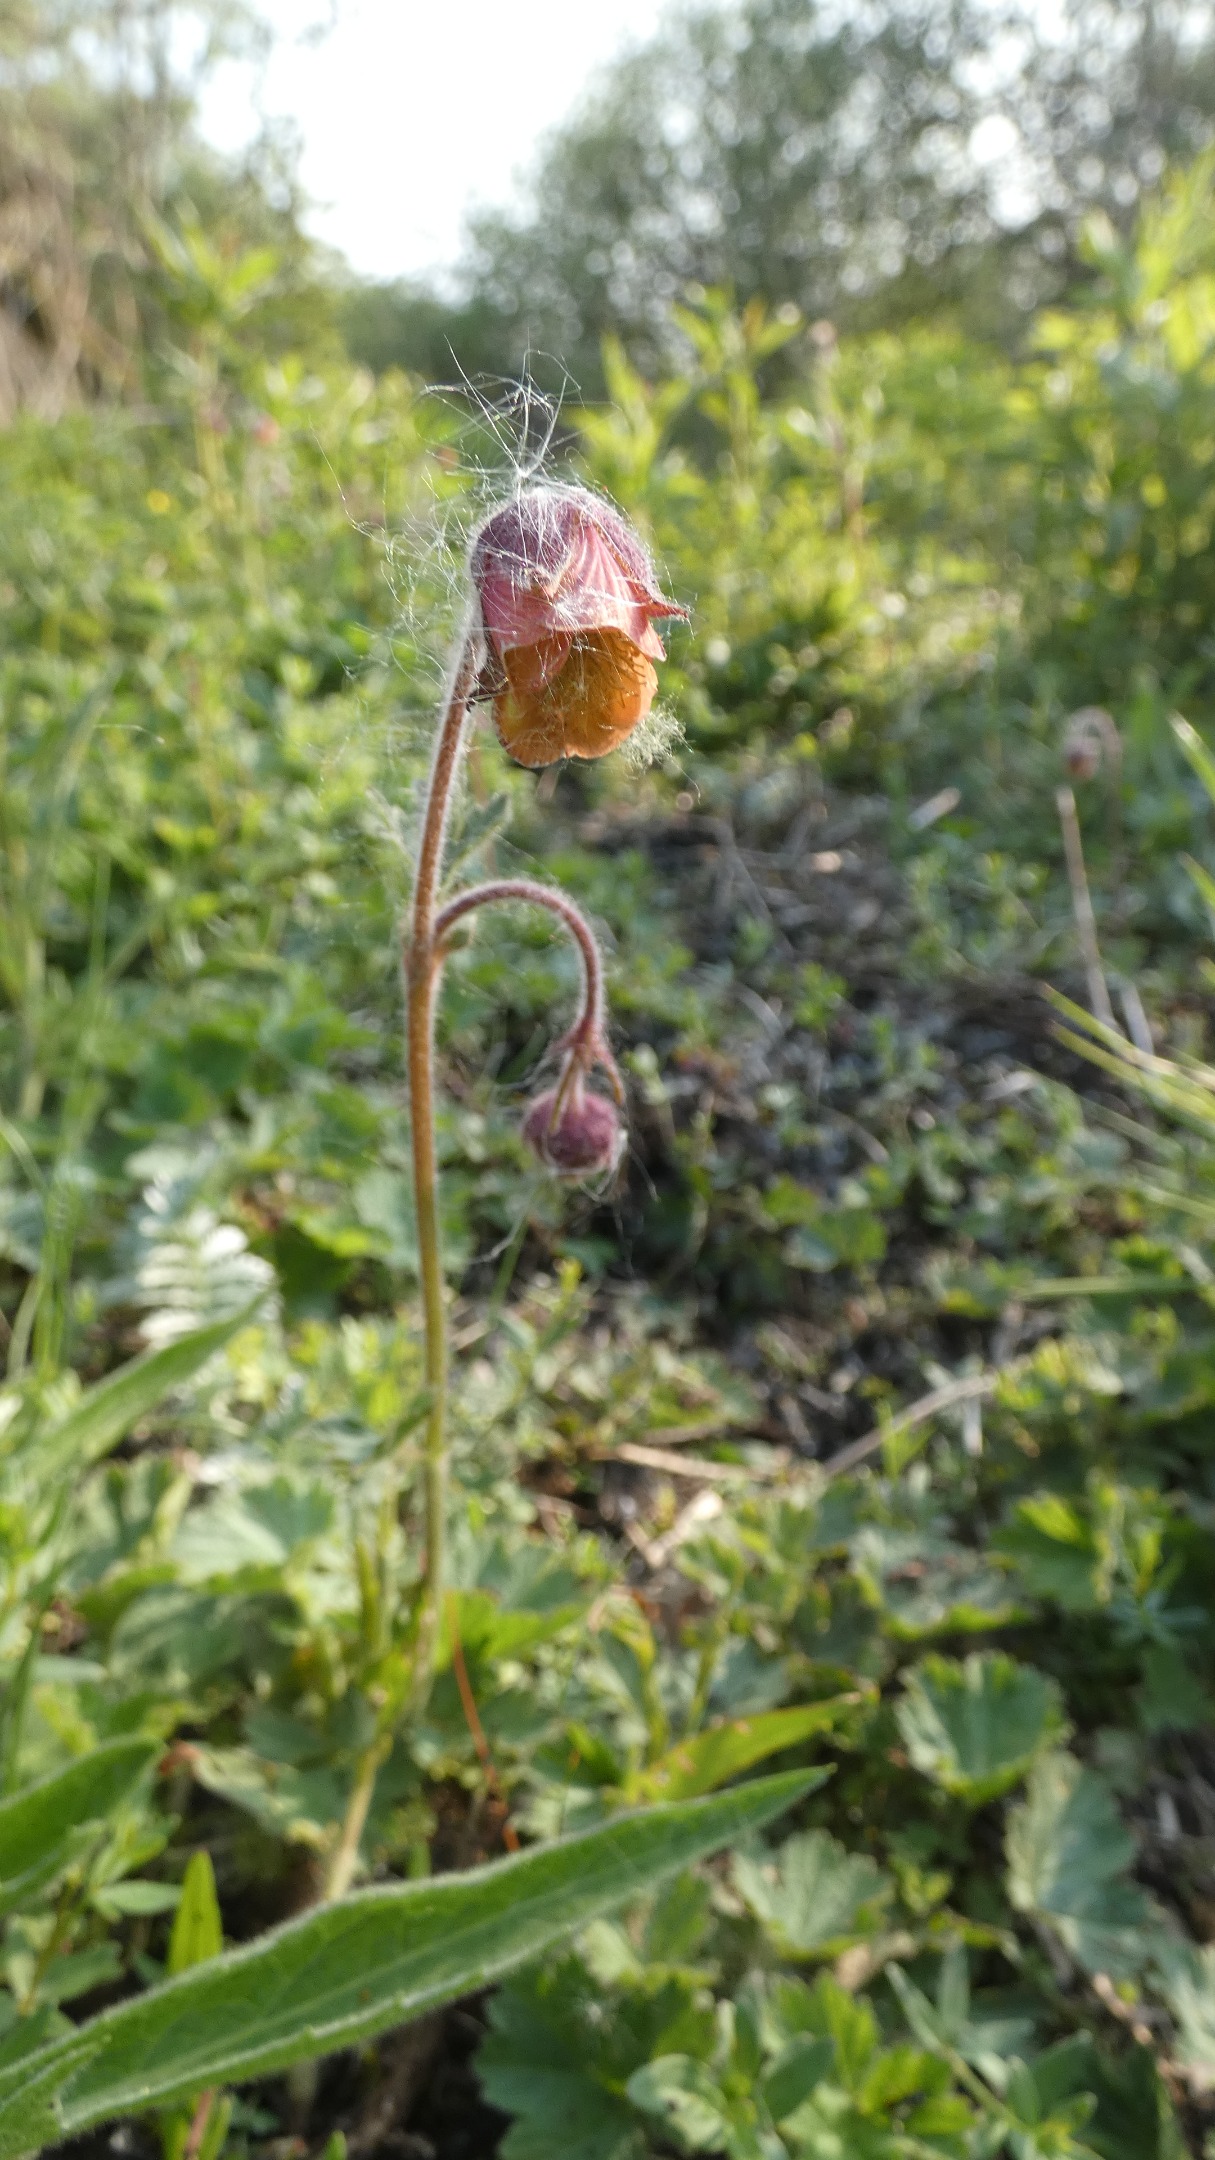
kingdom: Plantae
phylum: Tracheophyta
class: Magnoliopsida
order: Rosales
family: Rosaceae
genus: Geum
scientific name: Geum rivale
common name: Eng-nellikerod
